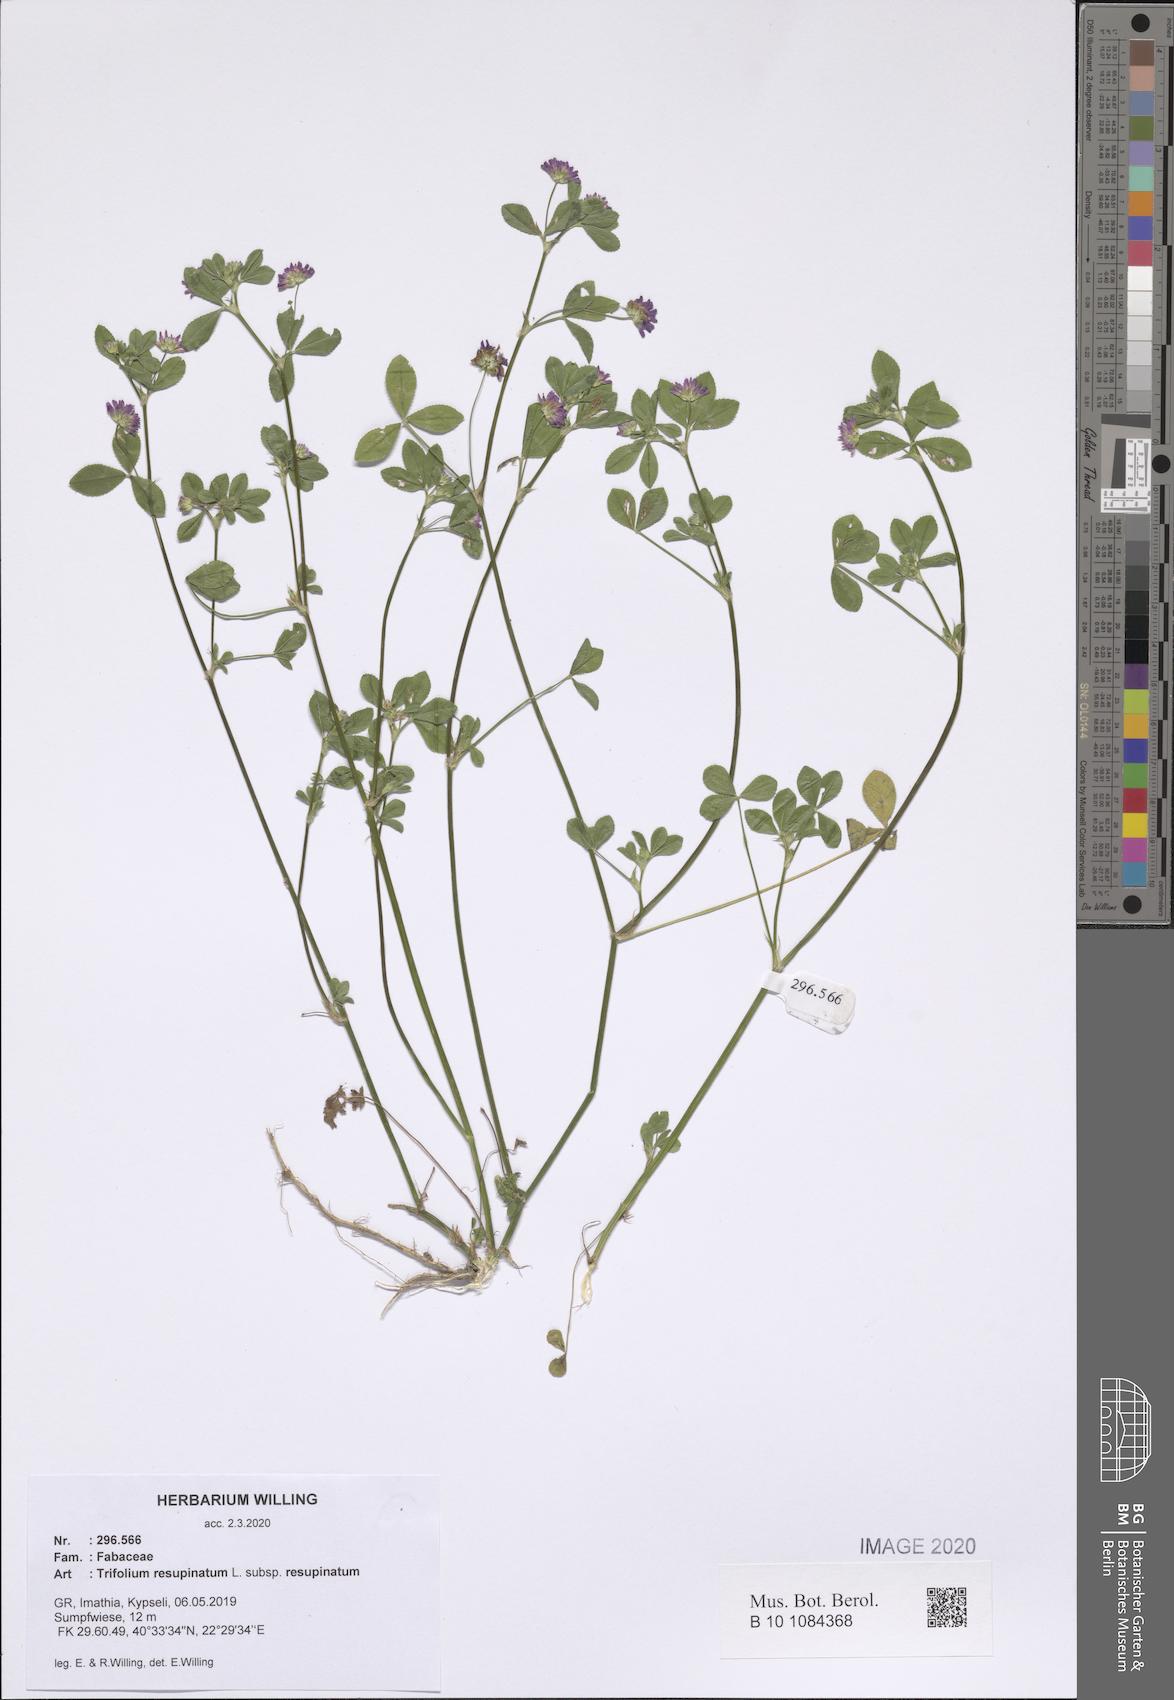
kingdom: Plantae
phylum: Tracheophyta
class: Magnoliopsida
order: Fabales
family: Fabaceae
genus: Trifolium
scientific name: Trifolium resupinatum
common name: Reversed clover
